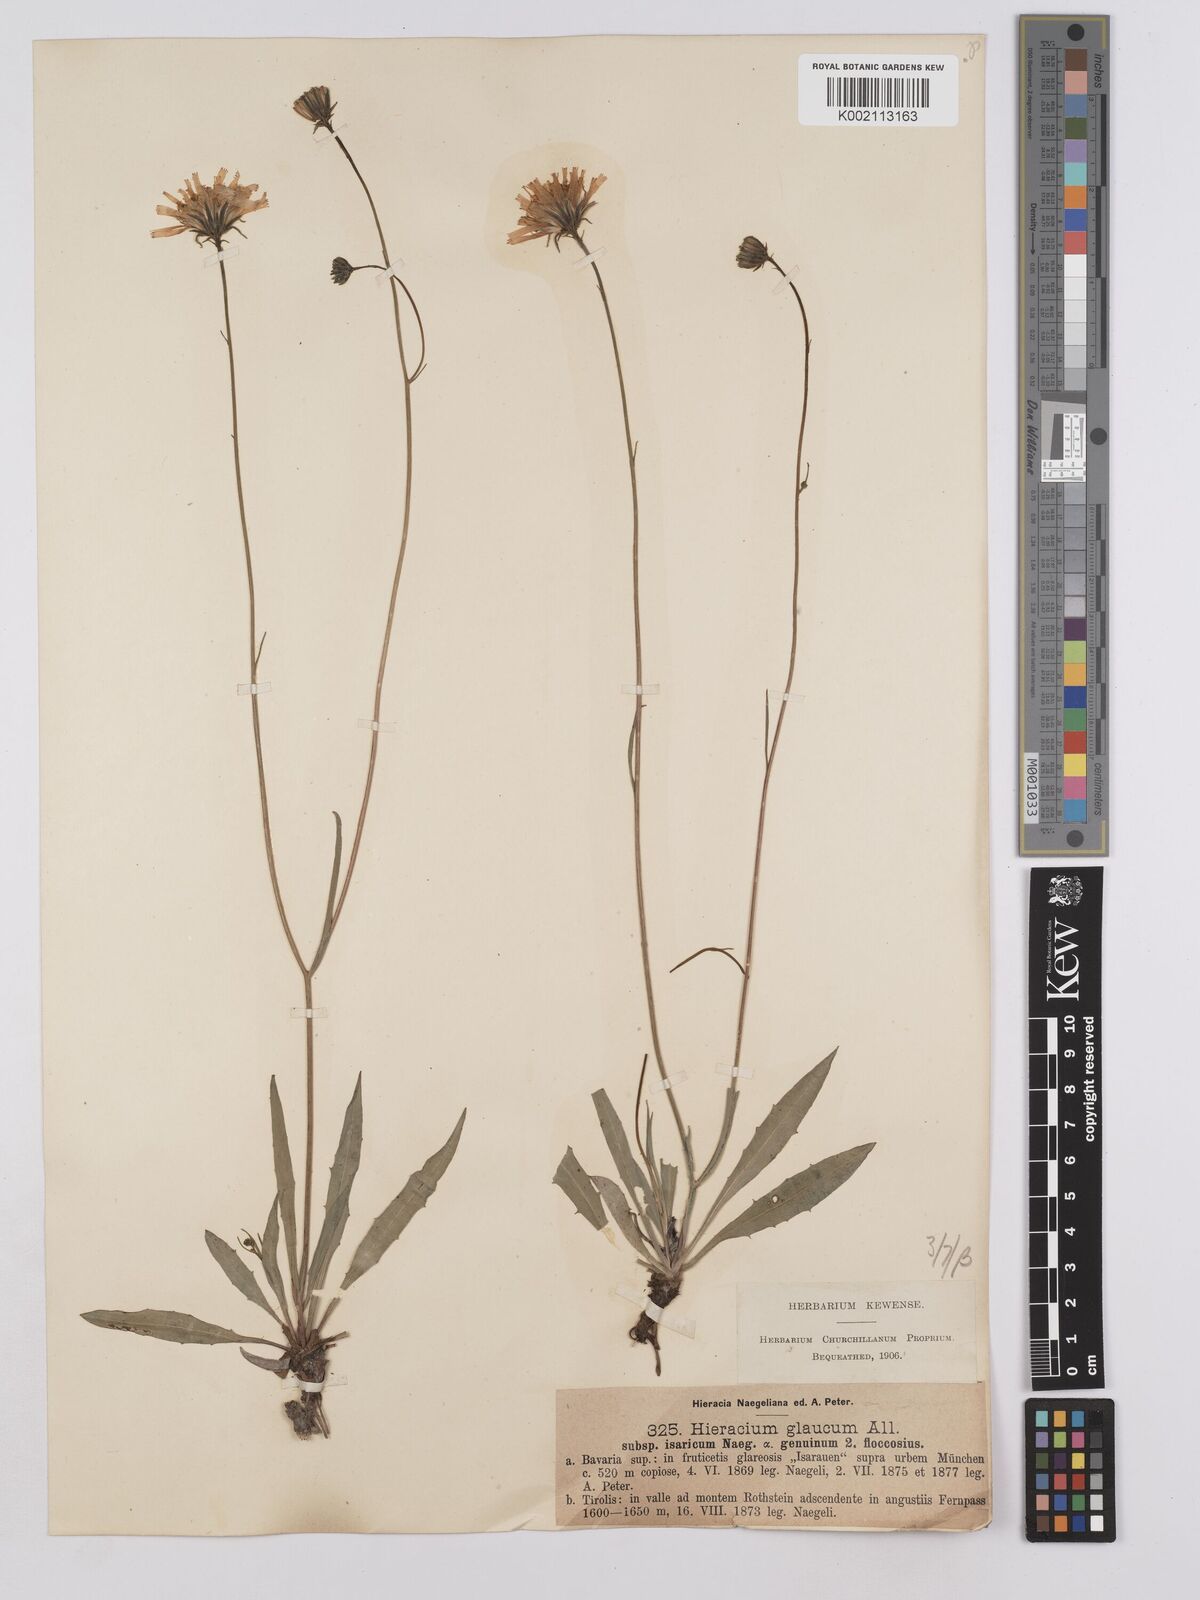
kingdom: Plantae
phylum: Tracheophyta
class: Magnoliopsida
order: Asterales
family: Asteraceae
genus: Hieracium
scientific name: Hieracium glaucum
